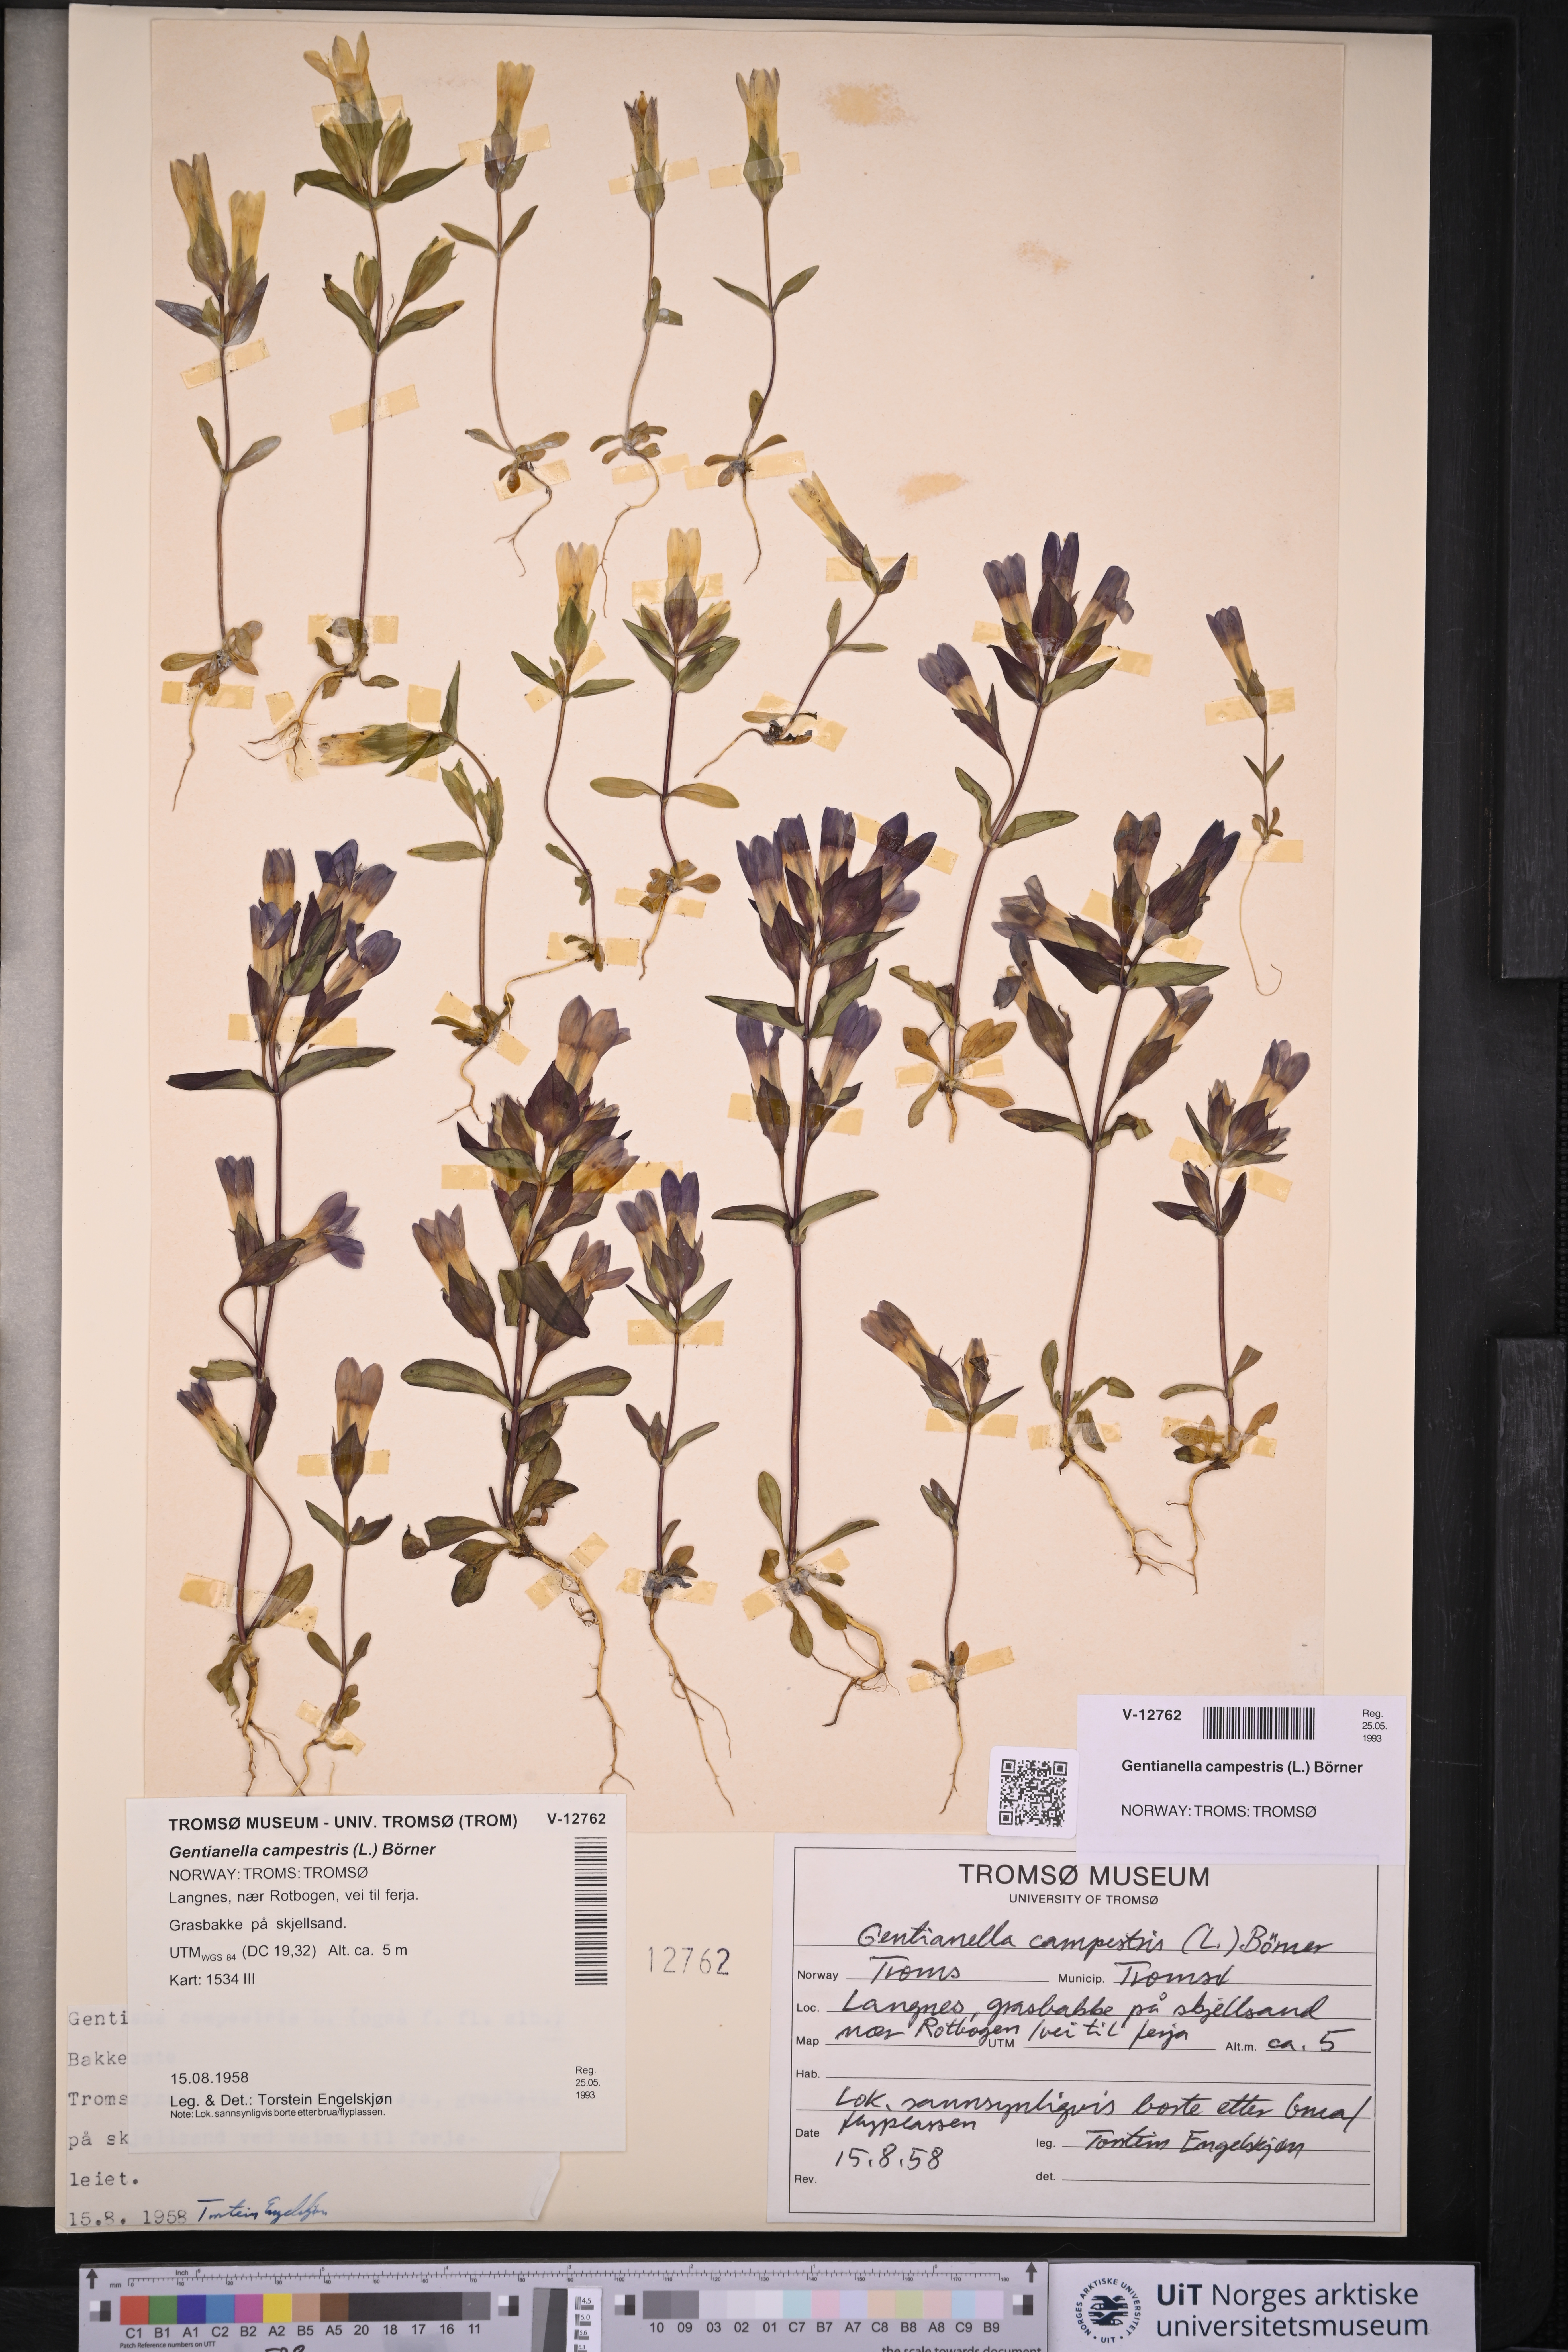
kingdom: Plantae
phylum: Tracheophyta
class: Magnoliopsida
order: Gentianales
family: Gentianaceae
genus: Gentianella
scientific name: Gentianella campestris
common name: Field gentian
